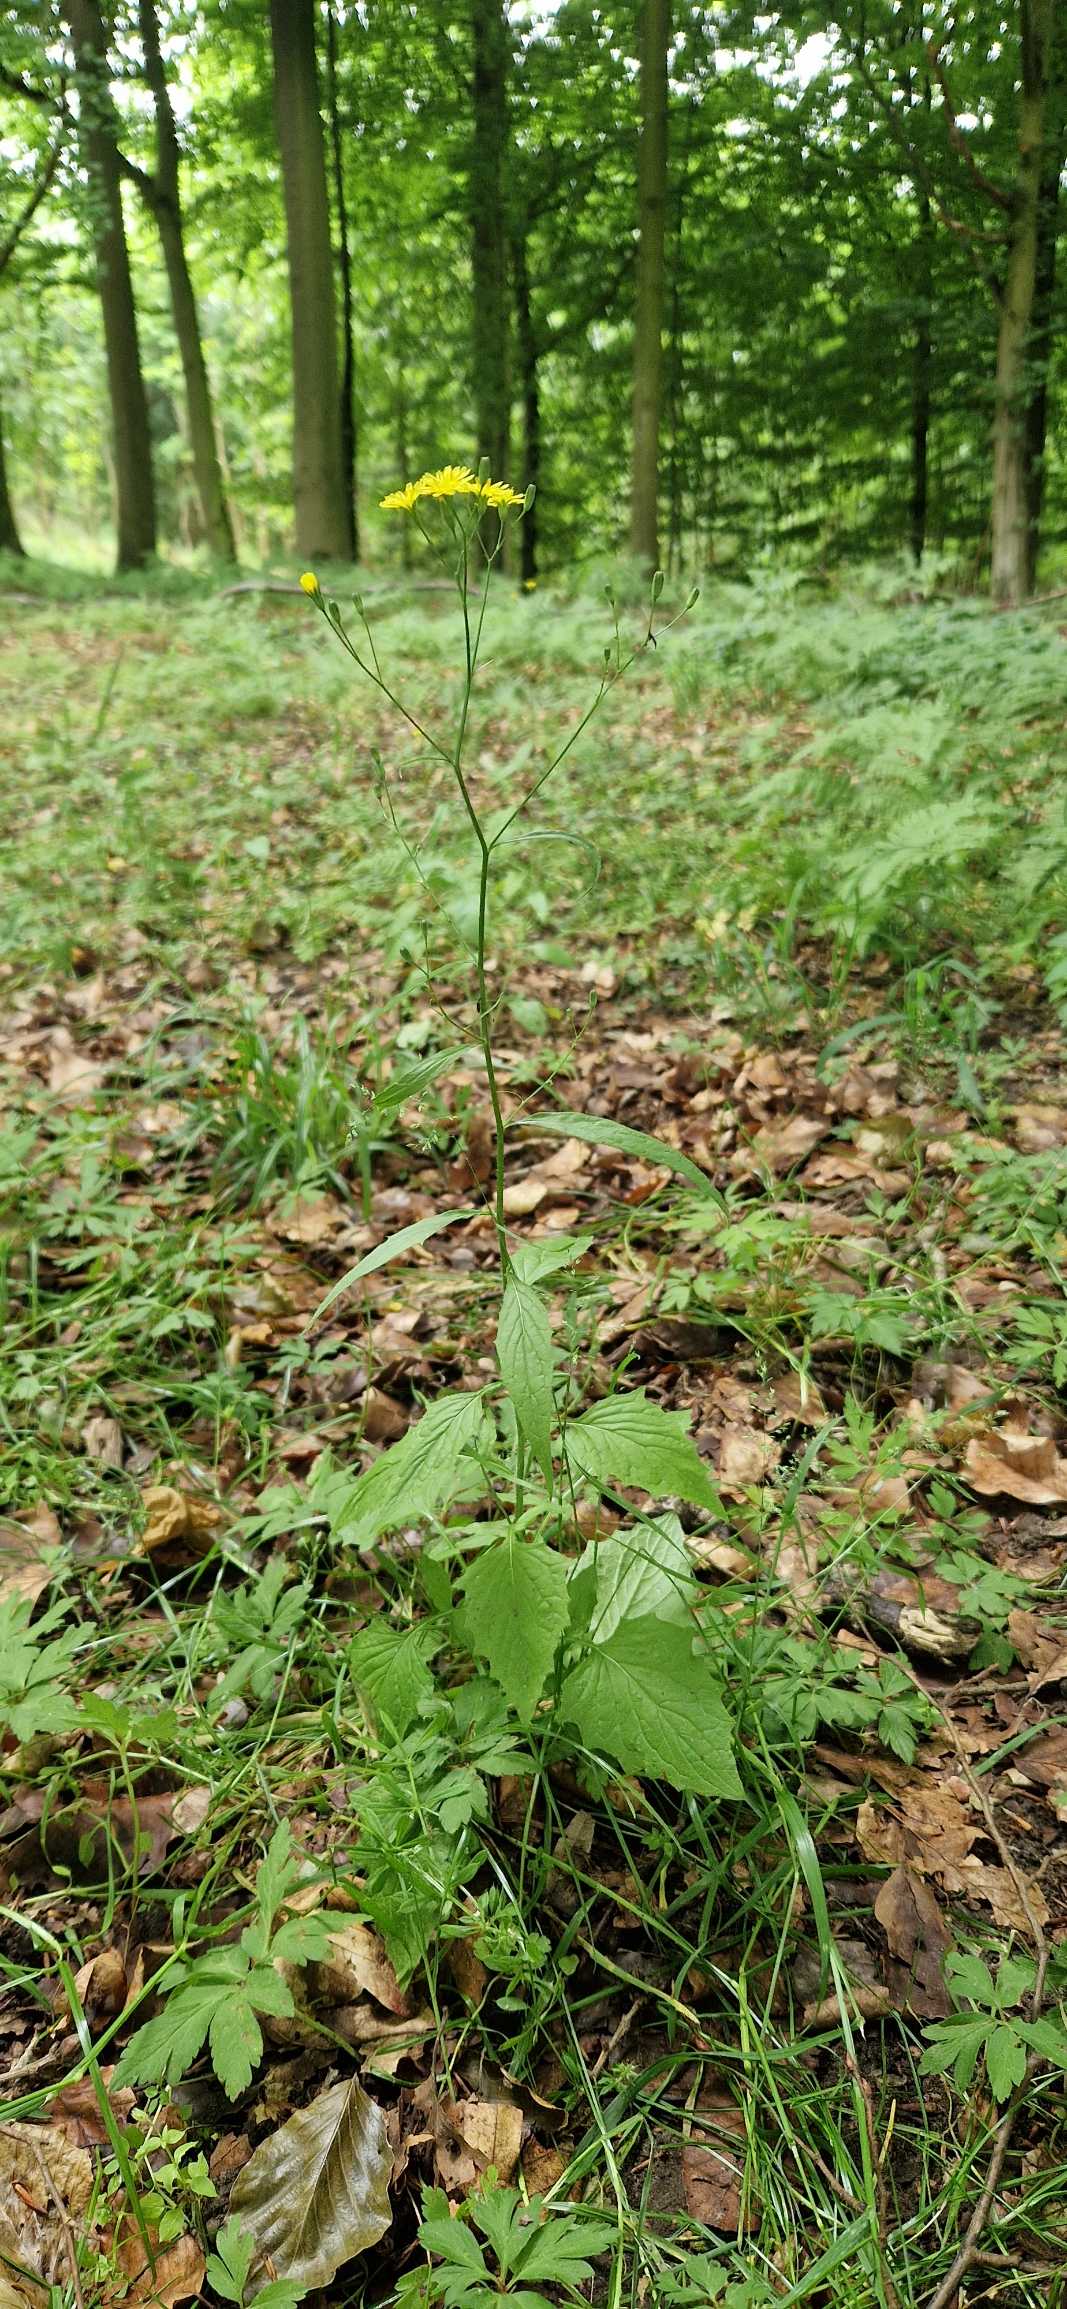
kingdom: Plantae
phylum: Tracheophyta
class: Magnoliopsida
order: Asterales
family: Asteraceae
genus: Lapsana
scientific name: Lapsana communis
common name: Haremad
